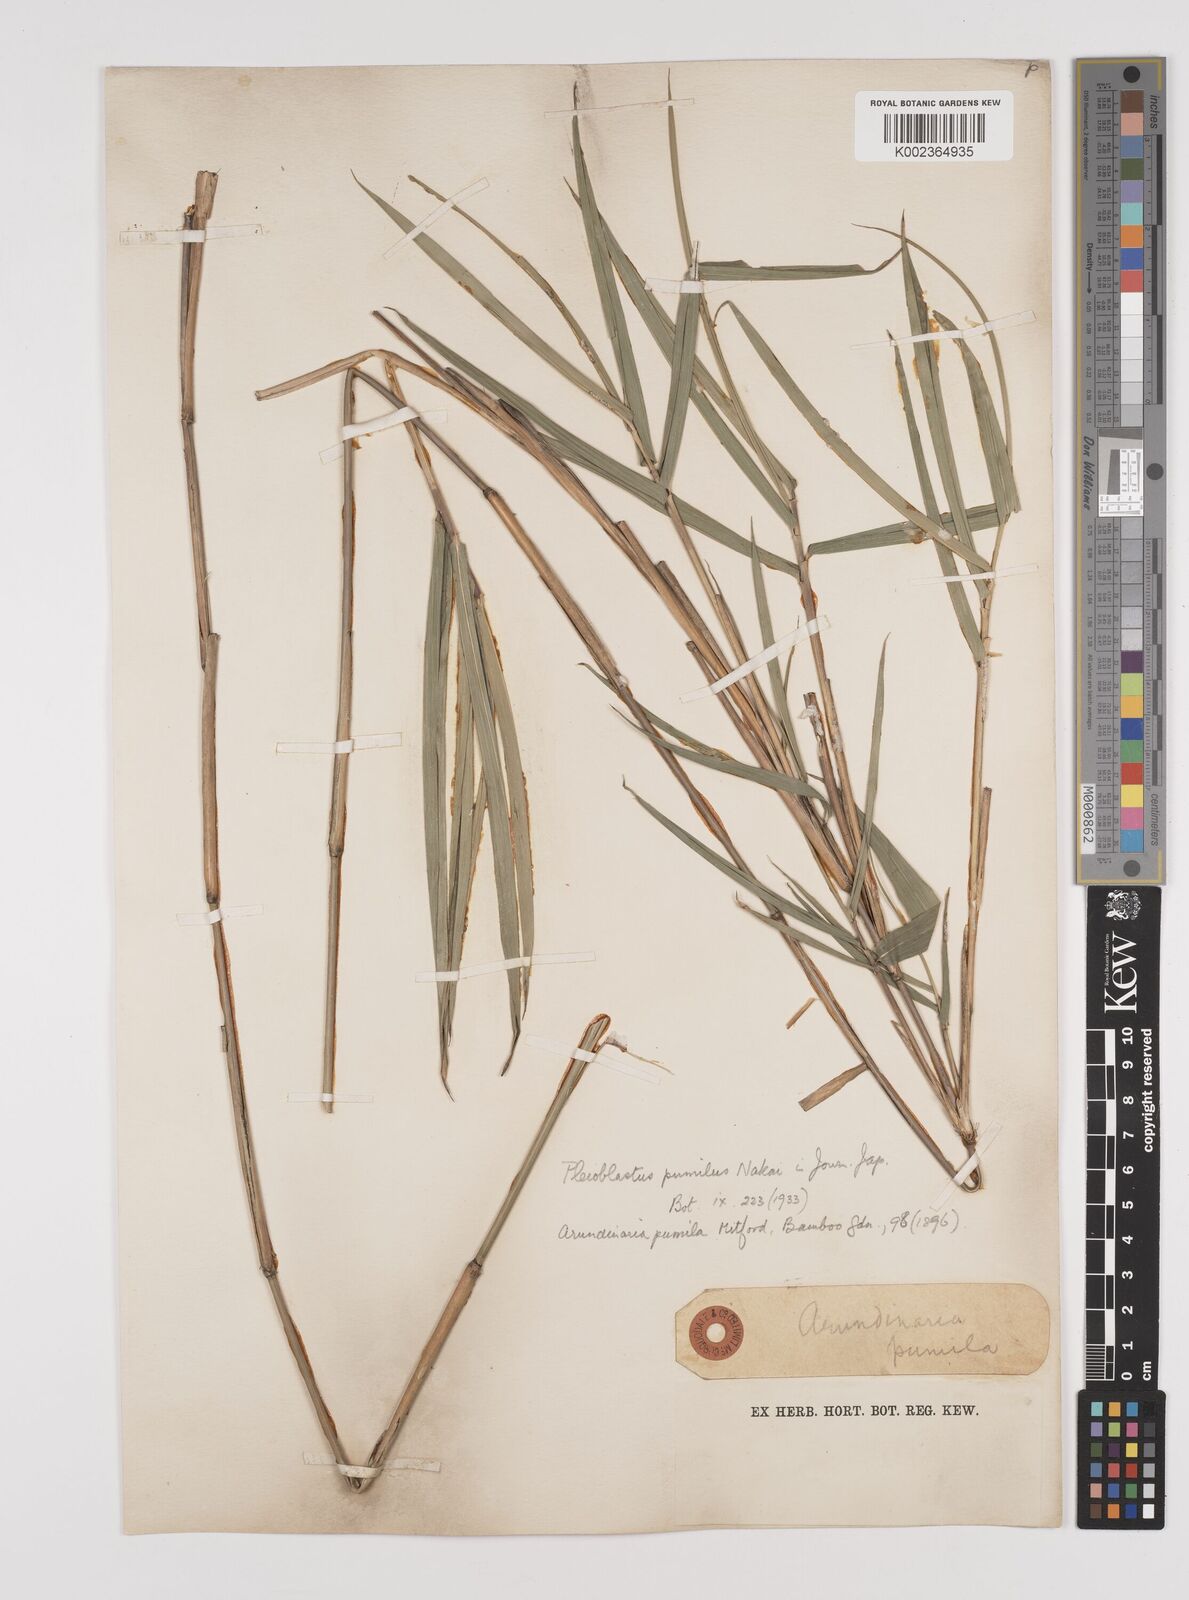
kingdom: Plantae
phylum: Tracheophyta
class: Liliopsida
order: Poales
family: Poaceae
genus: Pleioblastus
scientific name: Pleioblastus argenteostriatus
